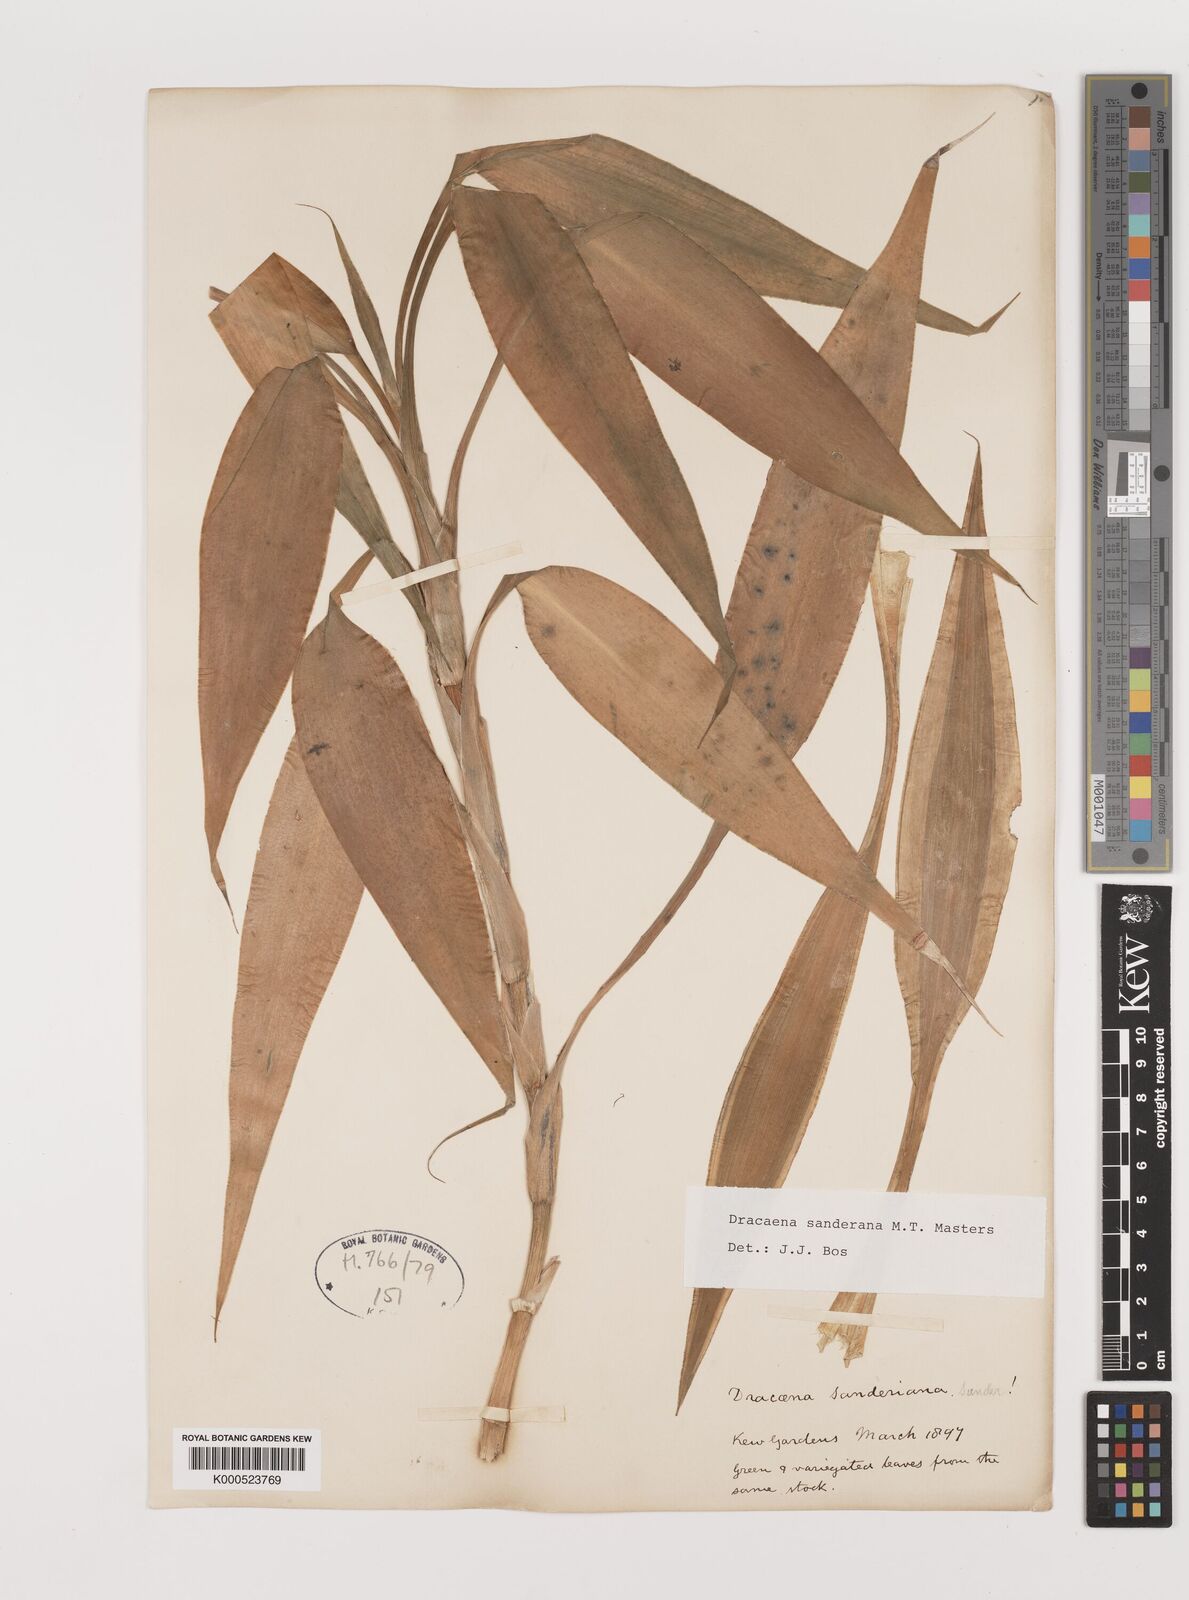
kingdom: Plantae
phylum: Tracheophyta
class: Liliopsida
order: Asparagales
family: Asparagaceae
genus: Dracaena
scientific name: Dracaena sanderiana
